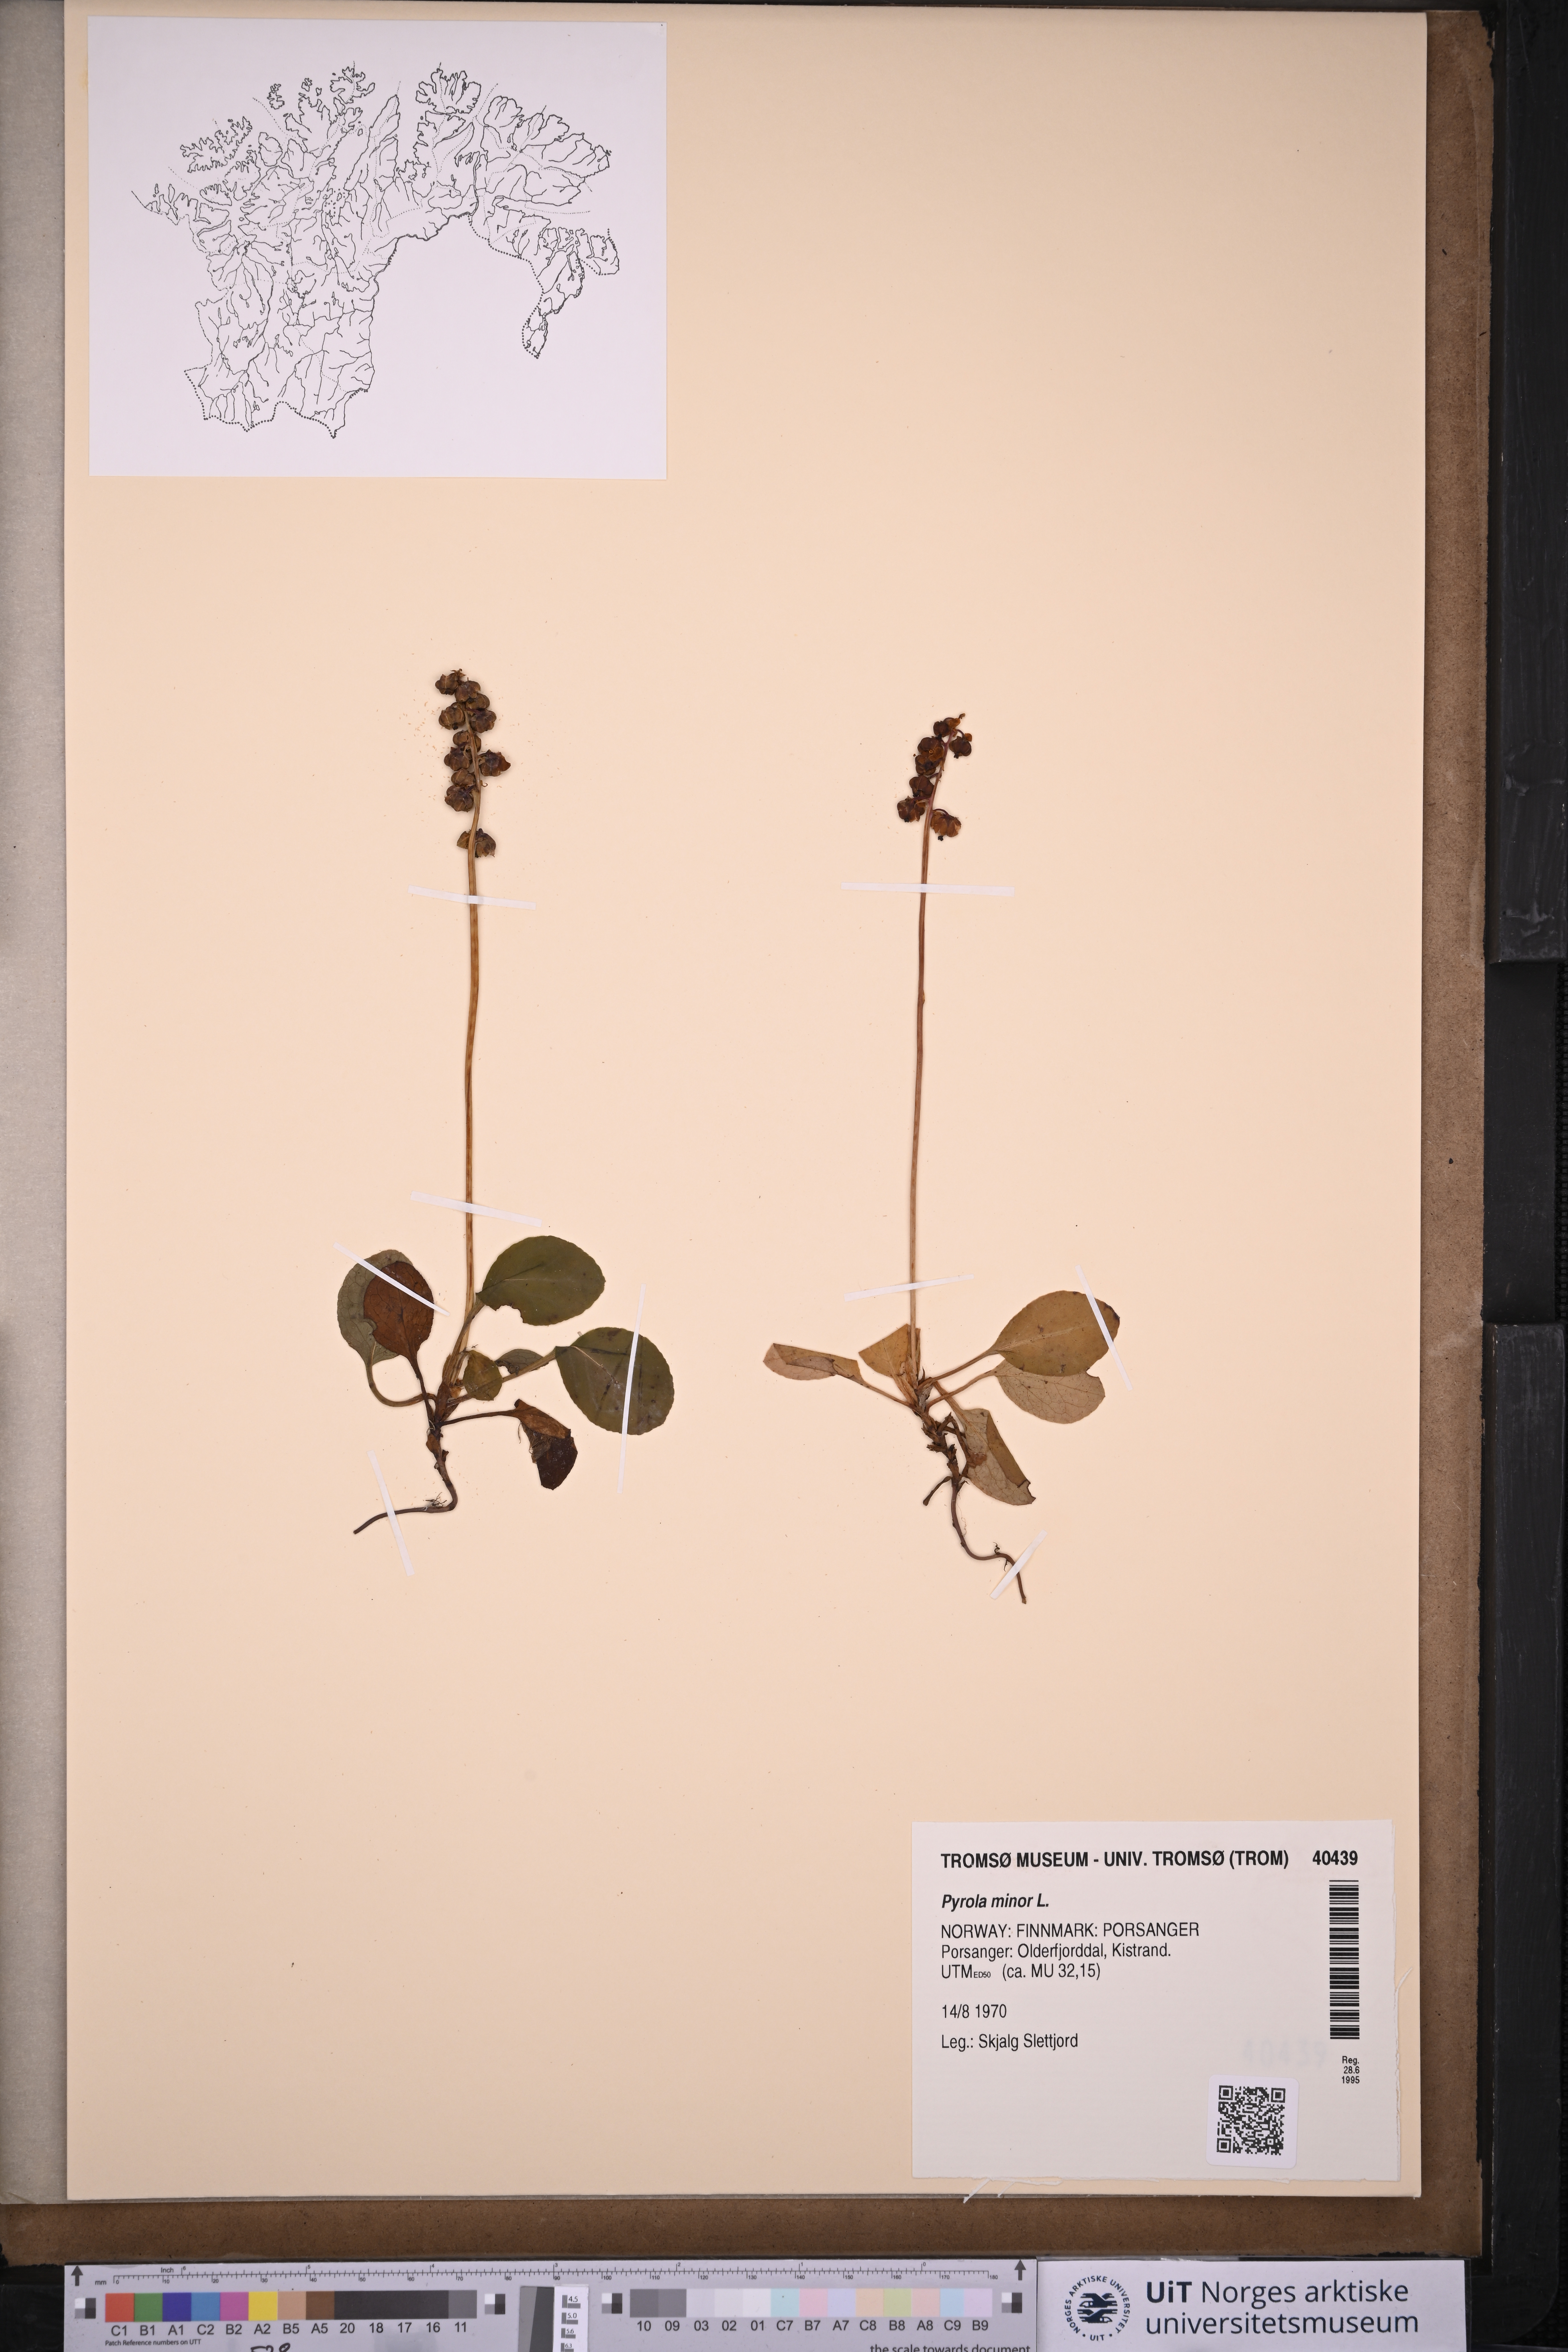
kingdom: Plantae
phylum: Tracheophyta
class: Magnoliopsida
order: Ericales
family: Ericaceae
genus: Pyrola
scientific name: Pyrola minor
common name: Common wintergreen
